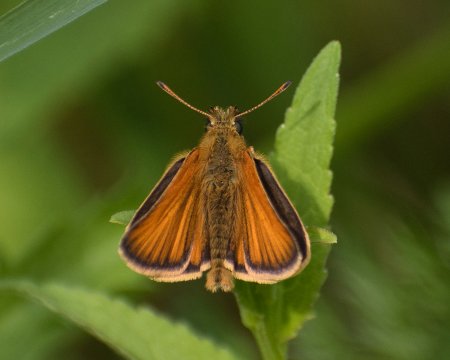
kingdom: Animalia
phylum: Arthropoda
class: Insecta
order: Lepidoptera
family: Hesperiidae
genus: Thymelicus
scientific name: Thymelicus lineola
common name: European Skipper
